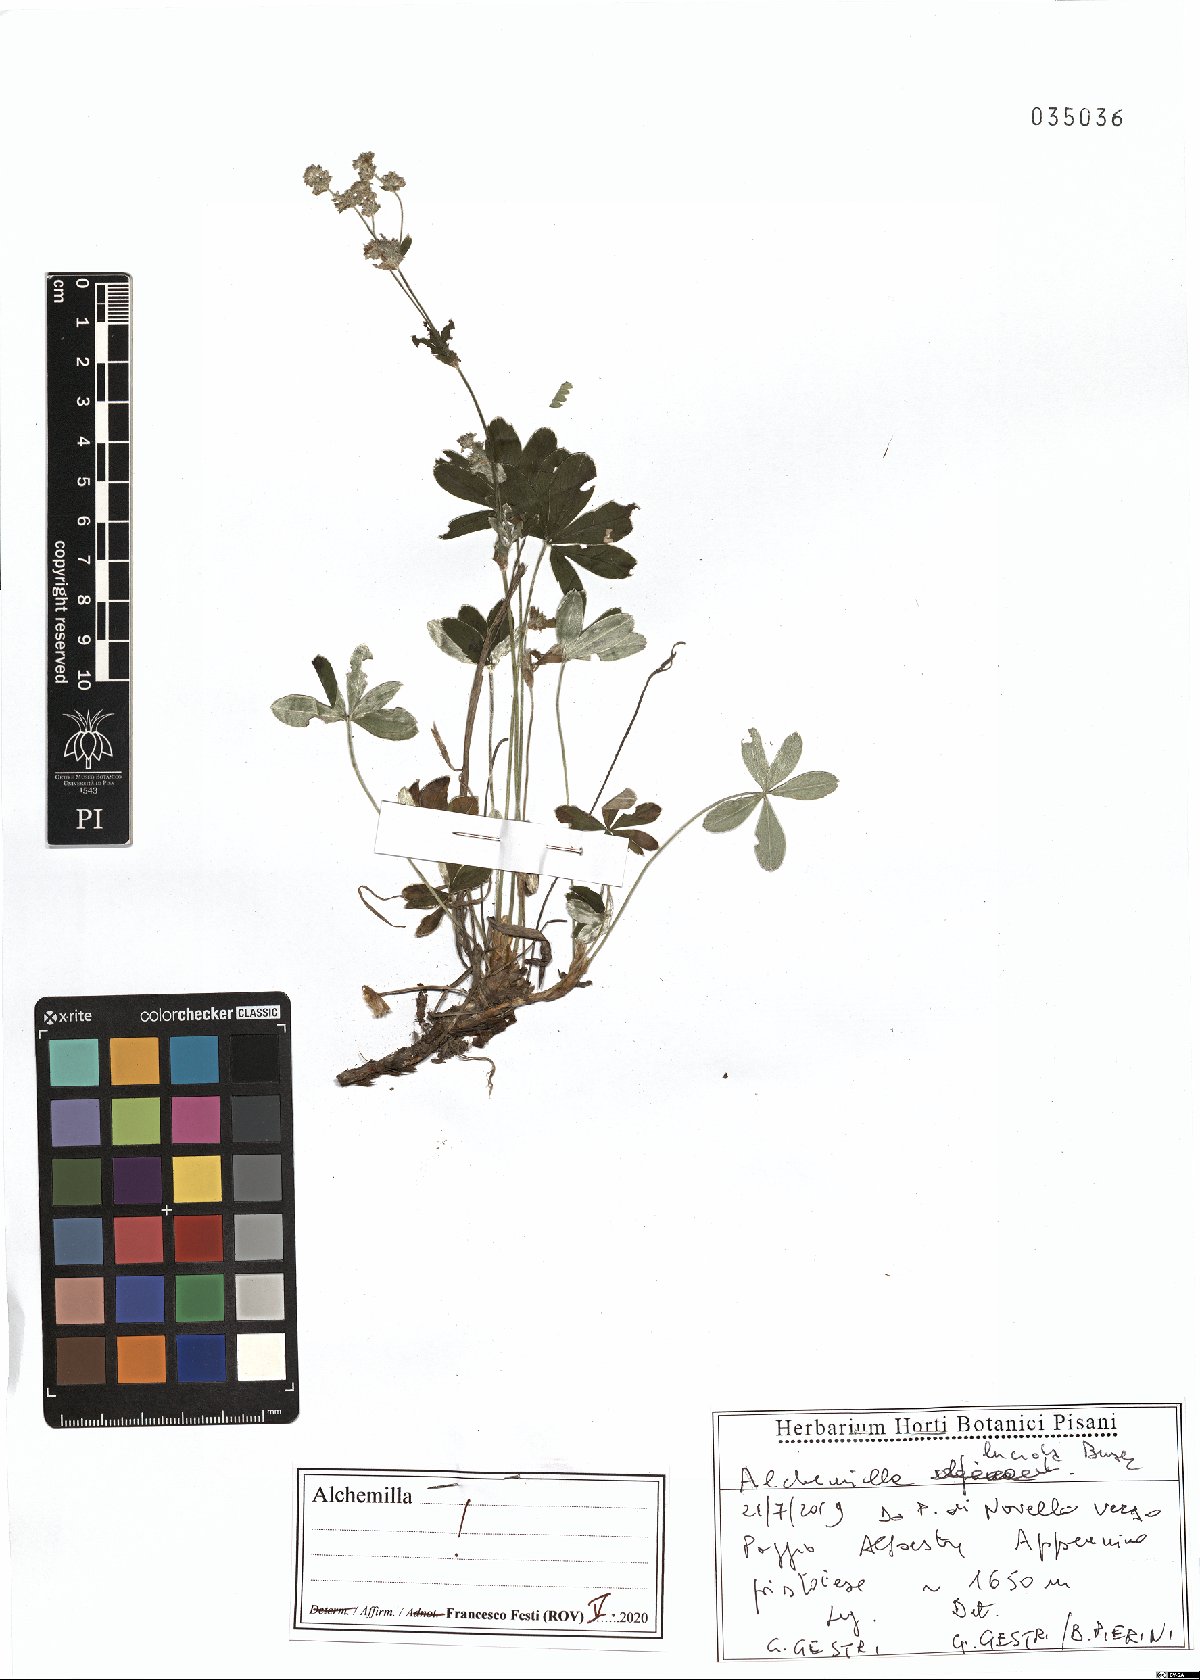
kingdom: Plantae
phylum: Tracheophyta
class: Magnoliopsida
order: Rosales
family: Rosaceae
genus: Alchemilla
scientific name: Alchemilla lucida
